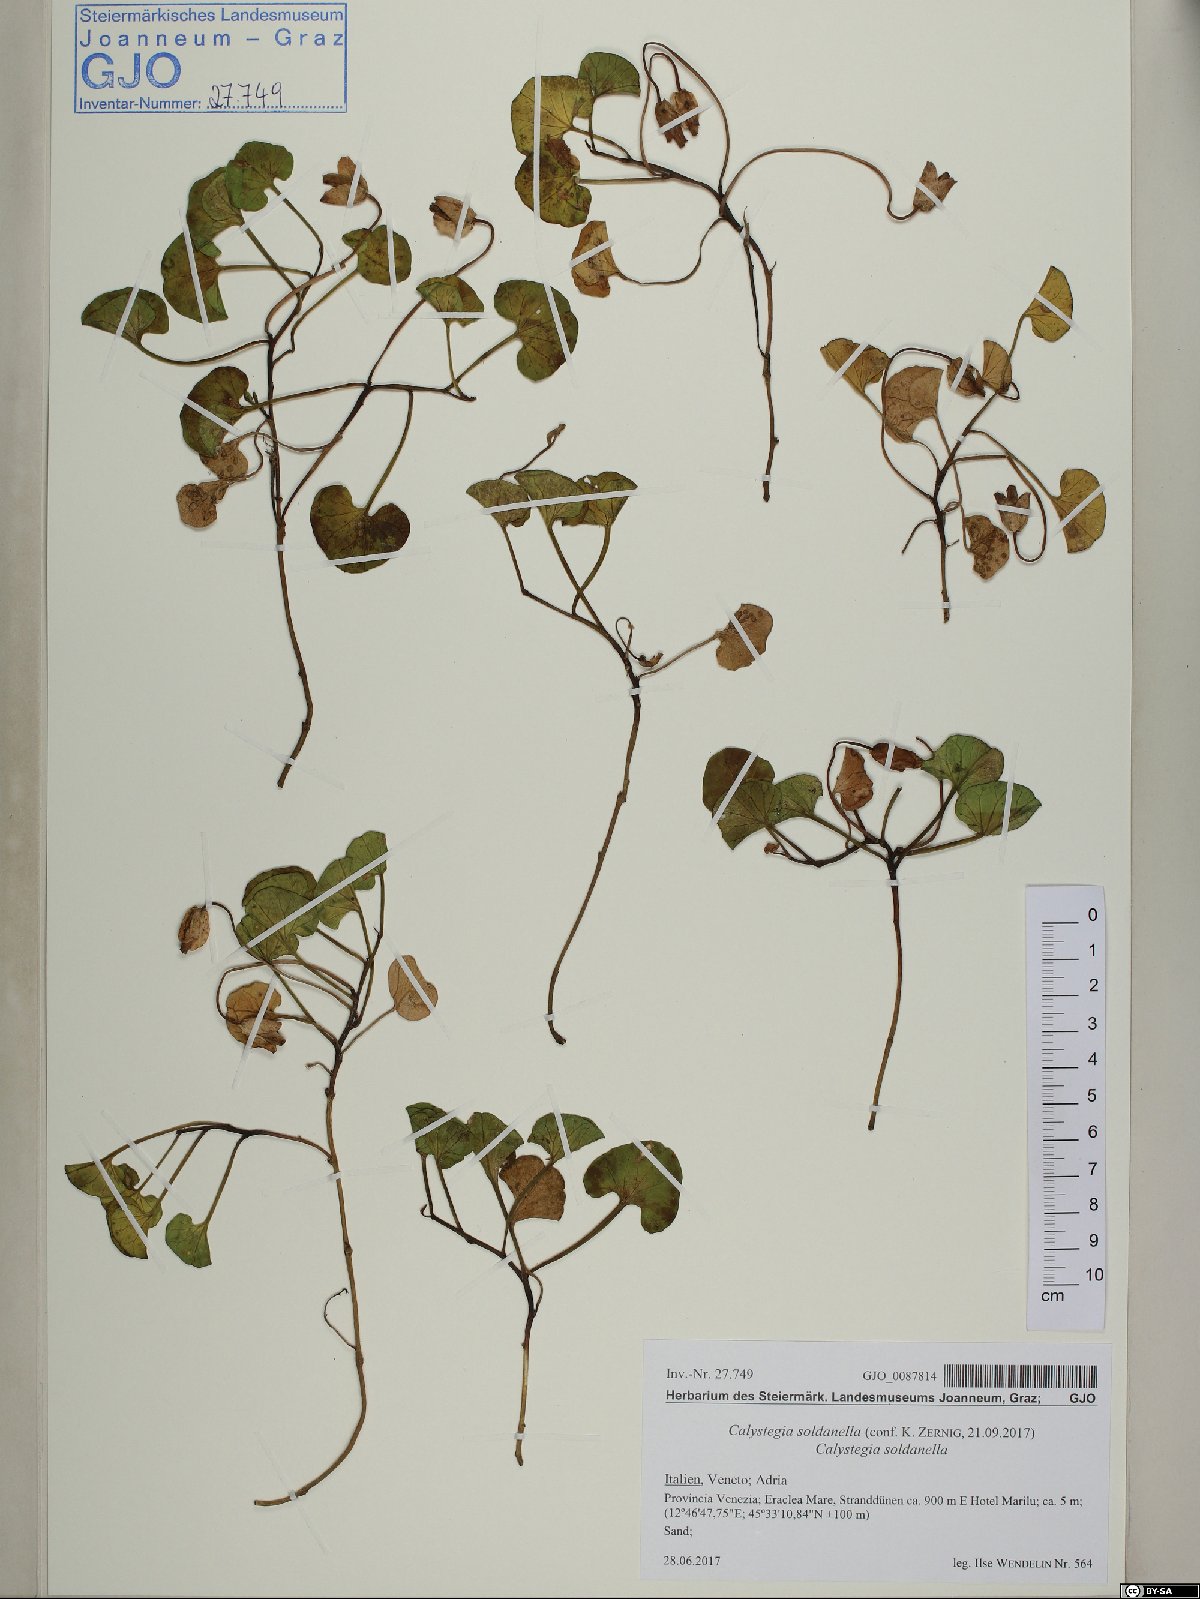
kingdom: Plantae
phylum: Tracheophyta
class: Magnoliopsida
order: Solanales
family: Convolvulaceae
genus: Calystegia
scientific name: Calystegia soldanella
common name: Sea bindweed
